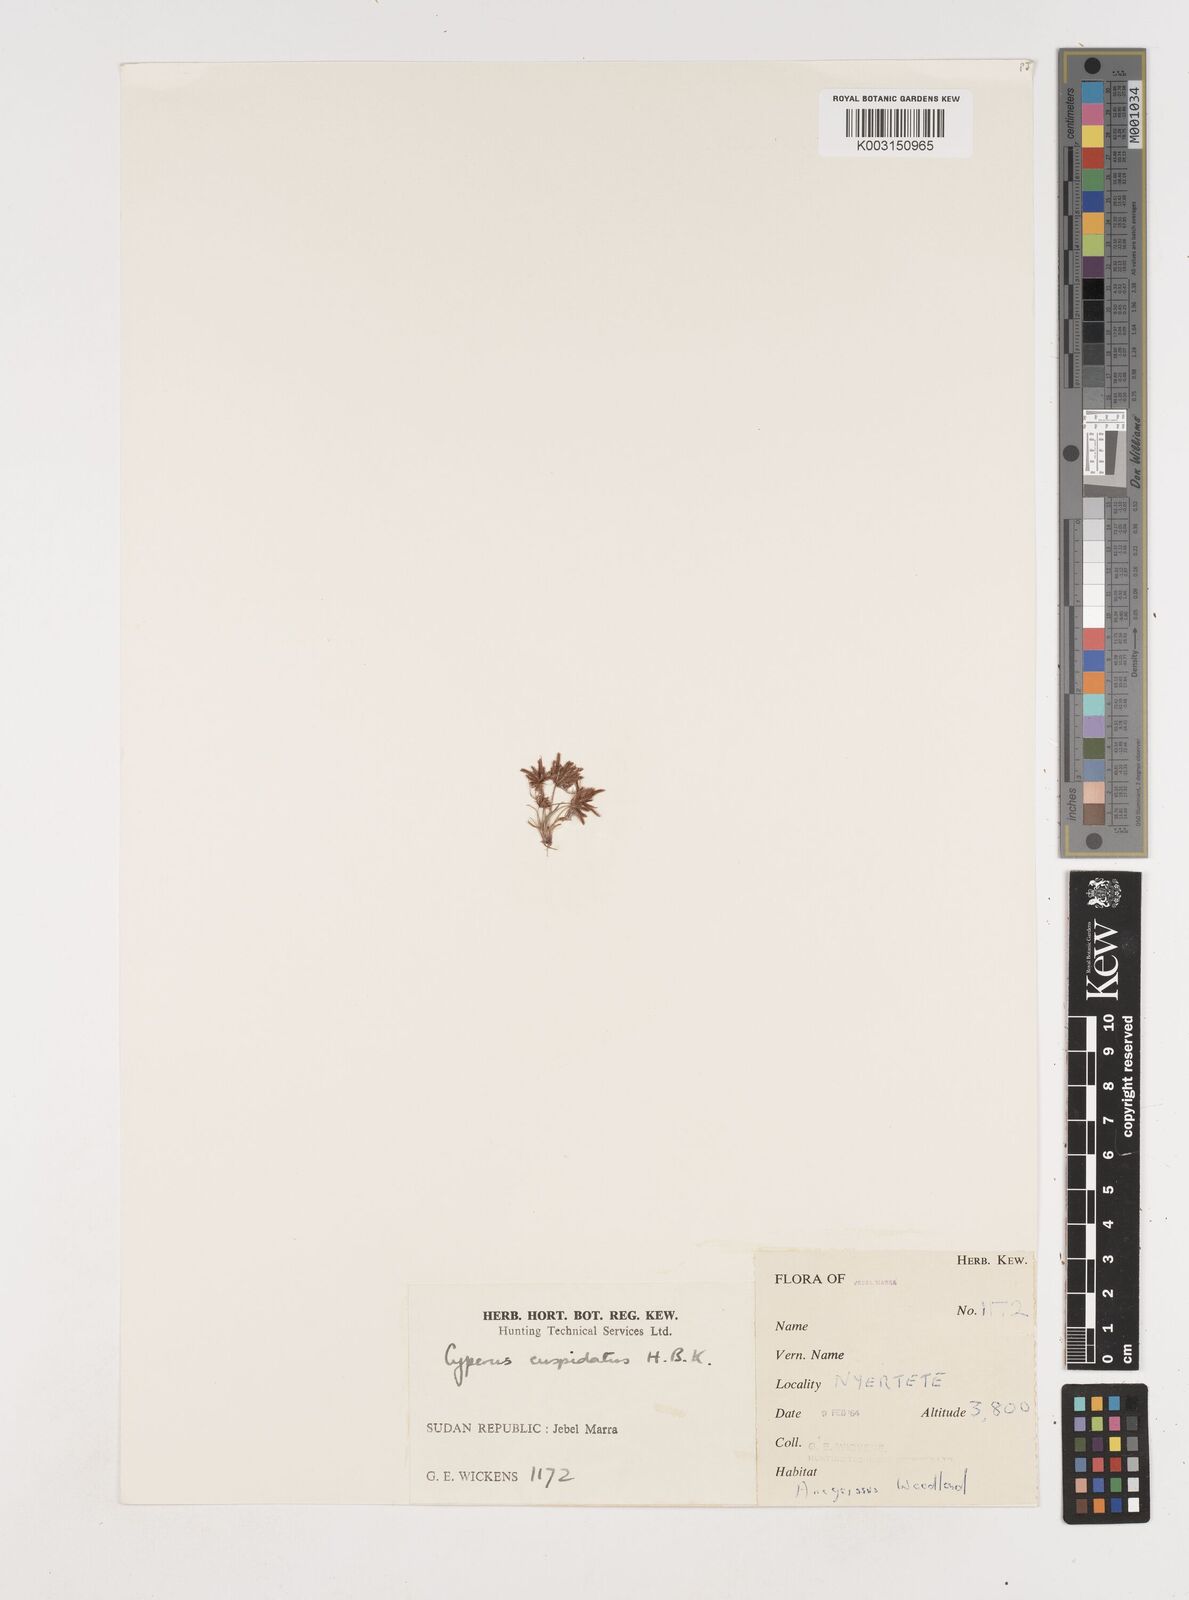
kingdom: Plantae
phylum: Tracheophyta
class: Liliopsida
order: Poales
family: Cyperaceae
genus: Cyperus
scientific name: Cyperus
